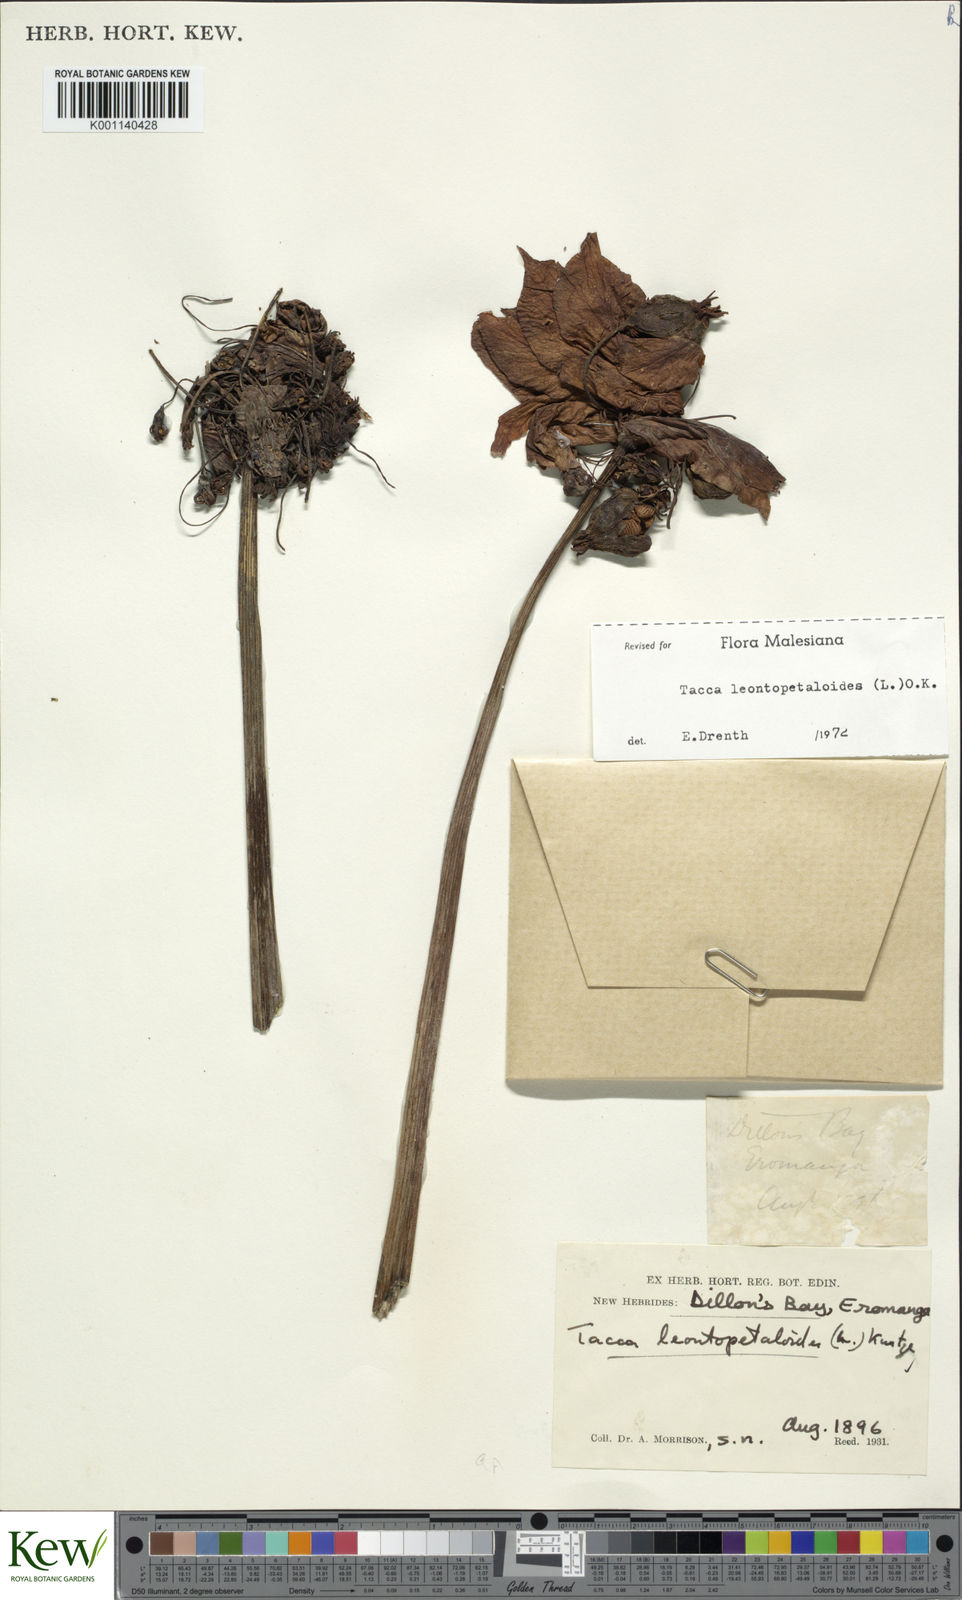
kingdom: Plantae
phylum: Tracheophyta
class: Liliopsida
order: Dioscoreales
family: Dioscoreaceae
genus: Tacca
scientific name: Tacca leontopetaloides
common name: Arrowroot
